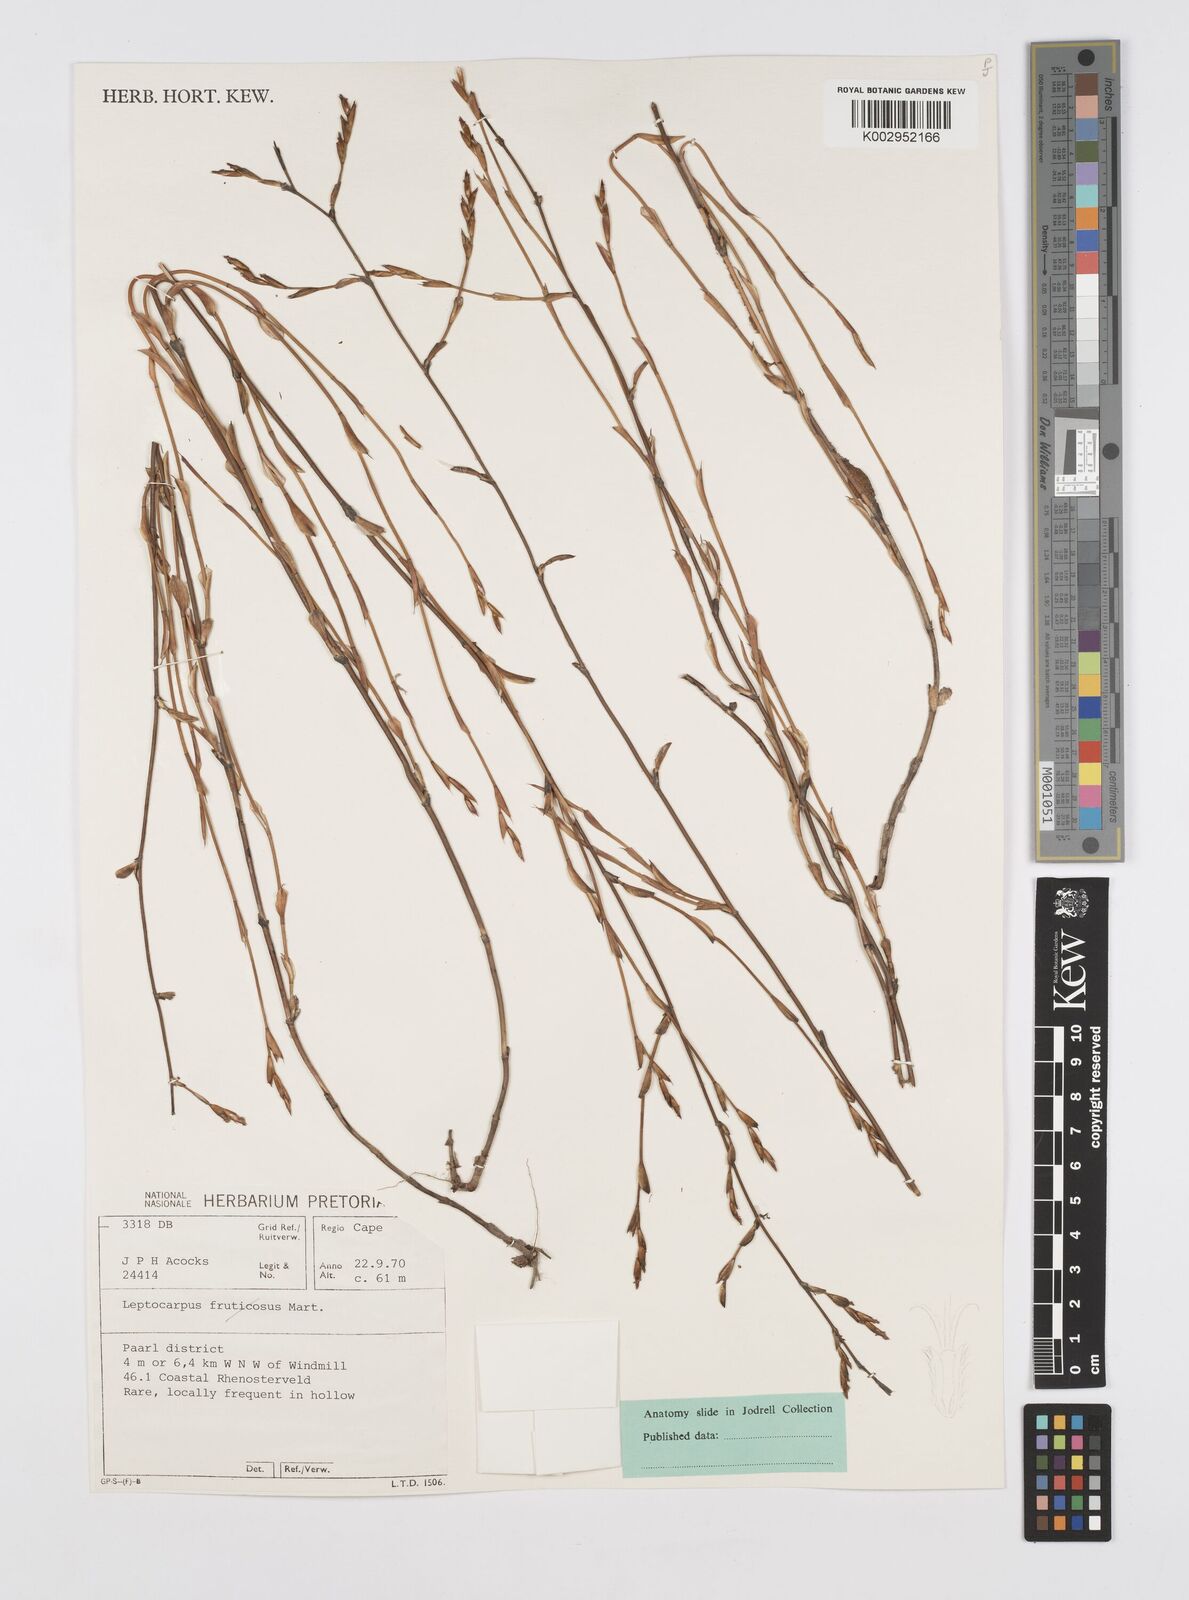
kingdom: Plantae
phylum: Tracheophyta
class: Liliopsida
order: Poales
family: Restionaceae
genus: Restio
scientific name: Restio rigoratus
